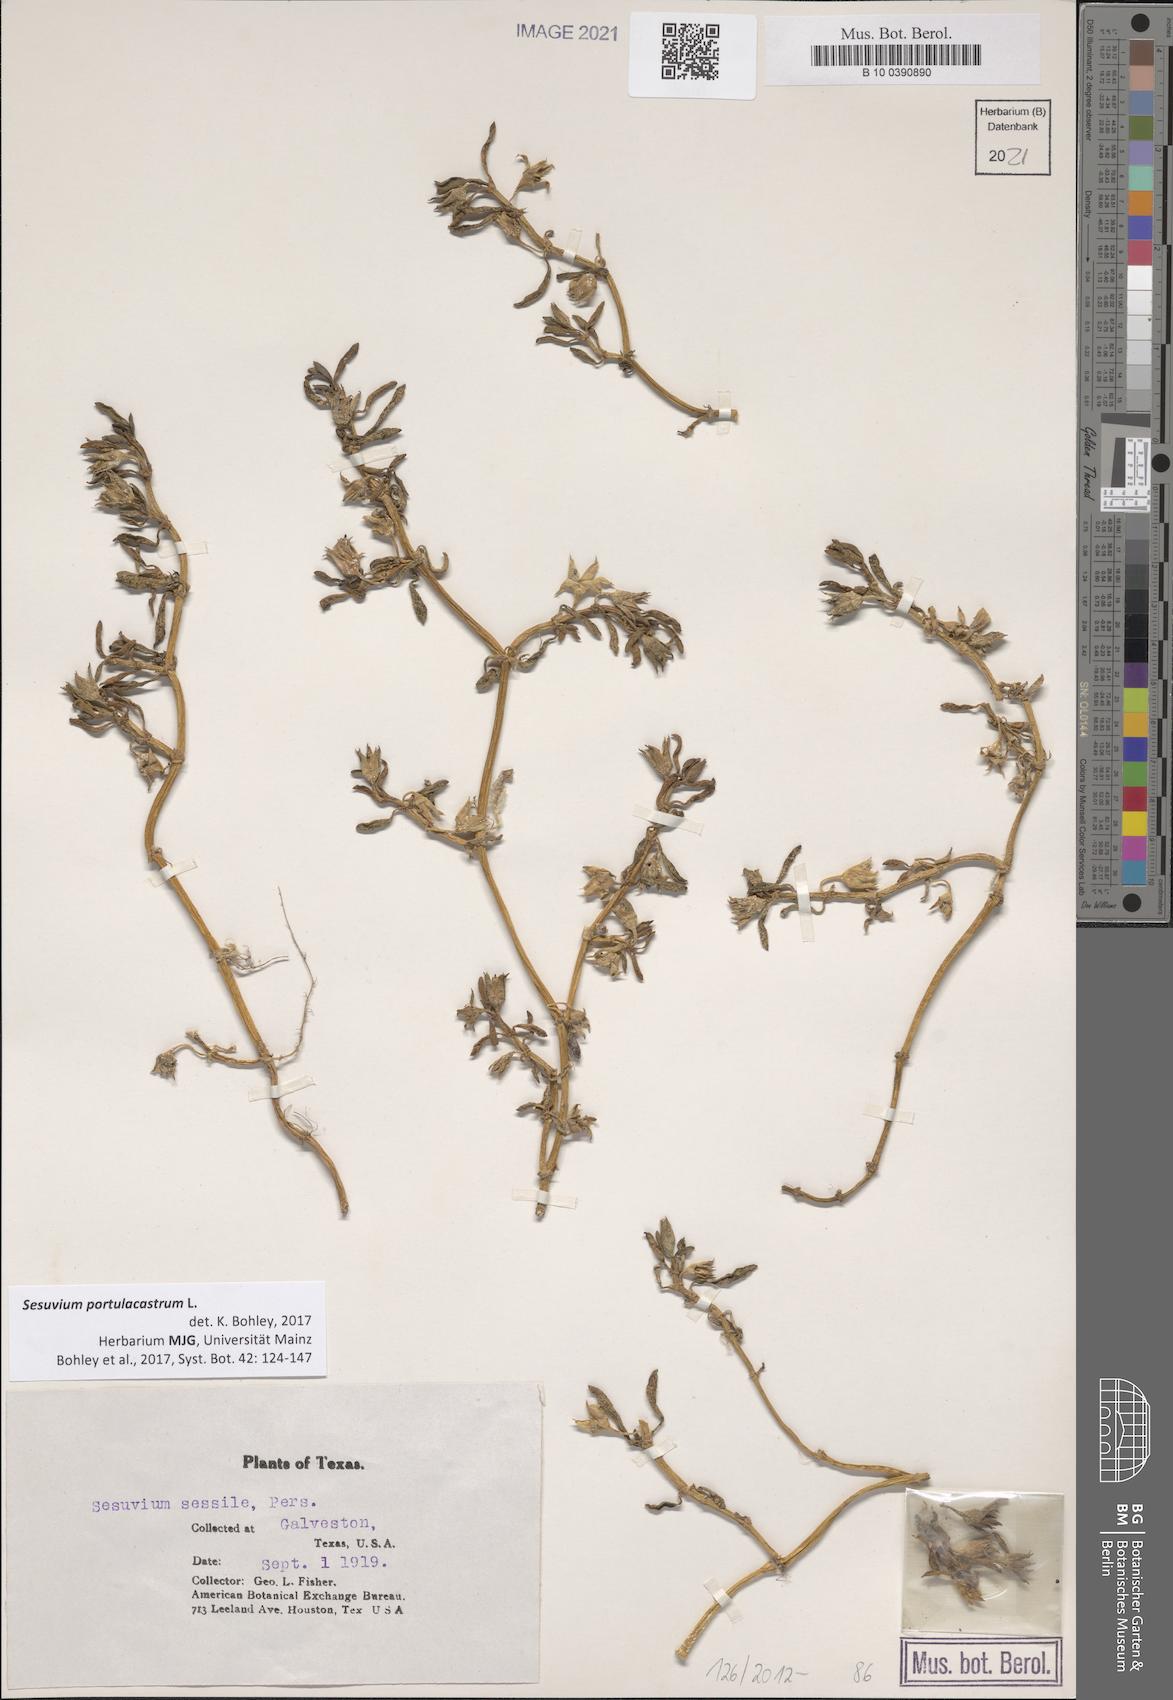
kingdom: Plantae
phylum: Tracheophyta
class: Magnoliopsida
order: Caryophyllales
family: Aizoaceae
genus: Sesuvium
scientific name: Sesuvium portulacastrum
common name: Sea-purslane
